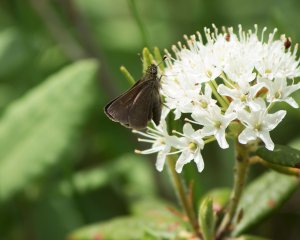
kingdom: Animalia
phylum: Arthropoda
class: Insecta
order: Lepidoptera
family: Hesperiidae
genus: Polites
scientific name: Polites themistocles
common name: Tawny-edged Skipper
